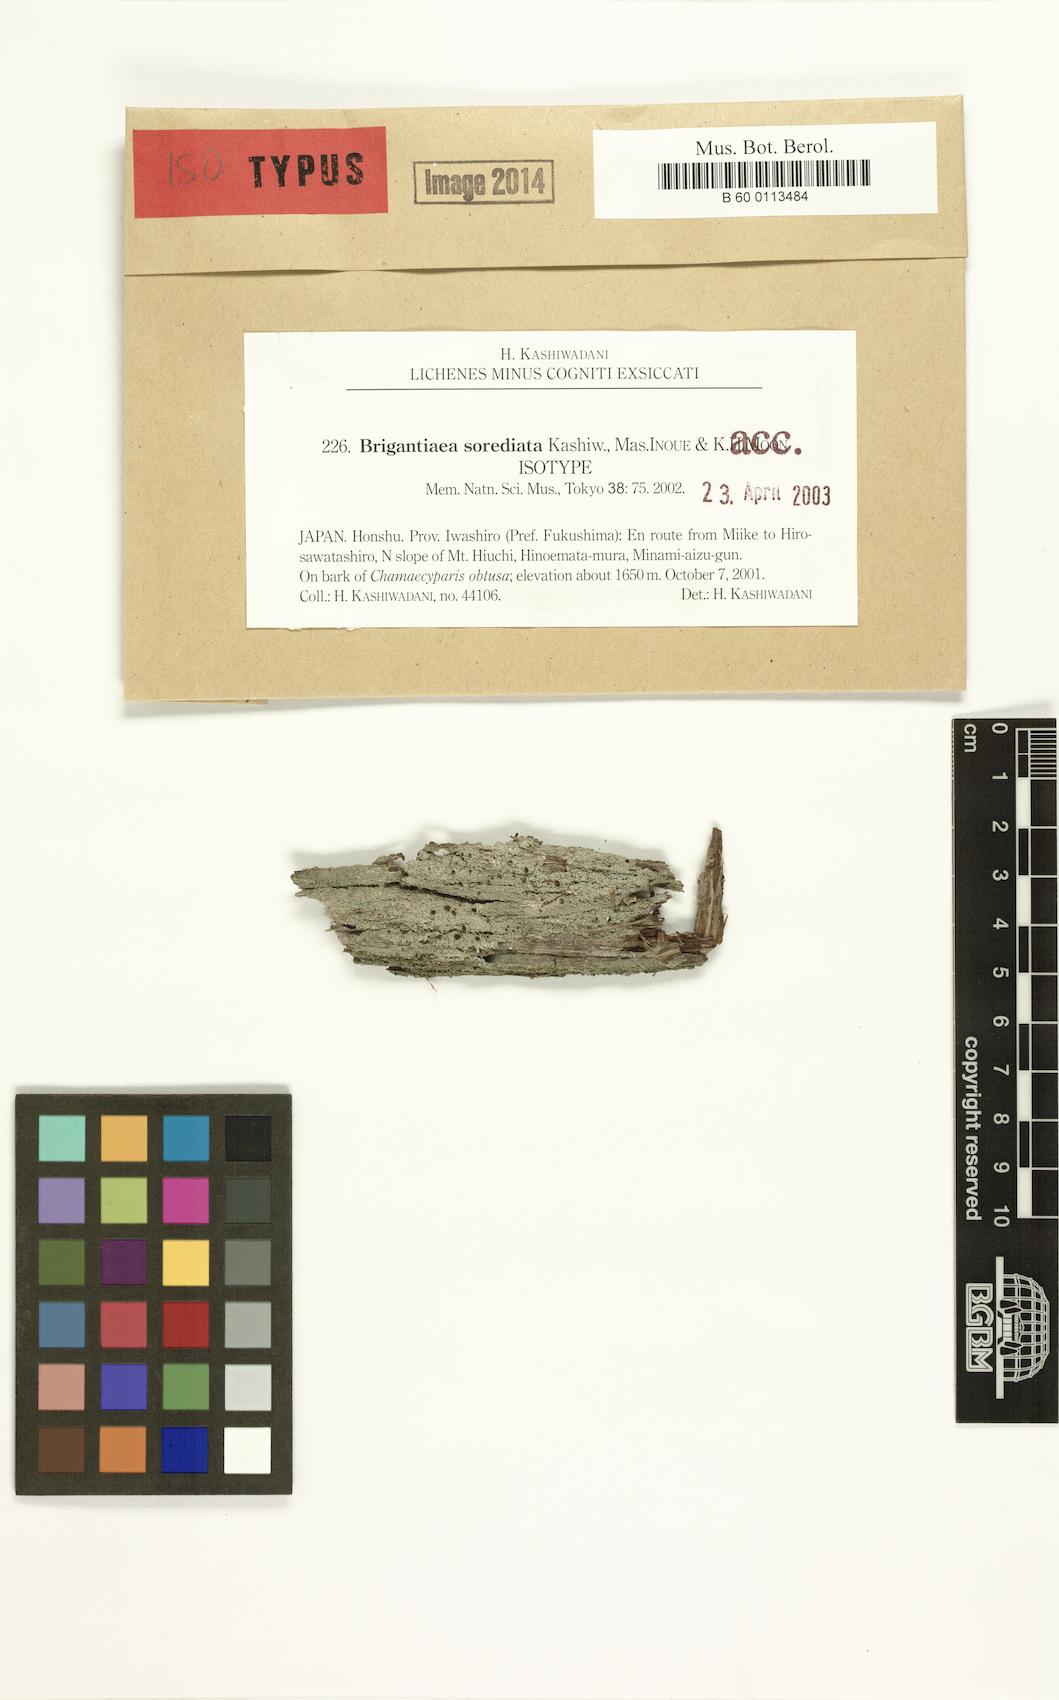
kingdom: Fungi
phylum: Ascomycota
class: Lecanoromycetes
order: Teloschistales
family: Brigantiaeaceae
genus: Brigantiaea
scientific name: Brigantiaea sorediata
